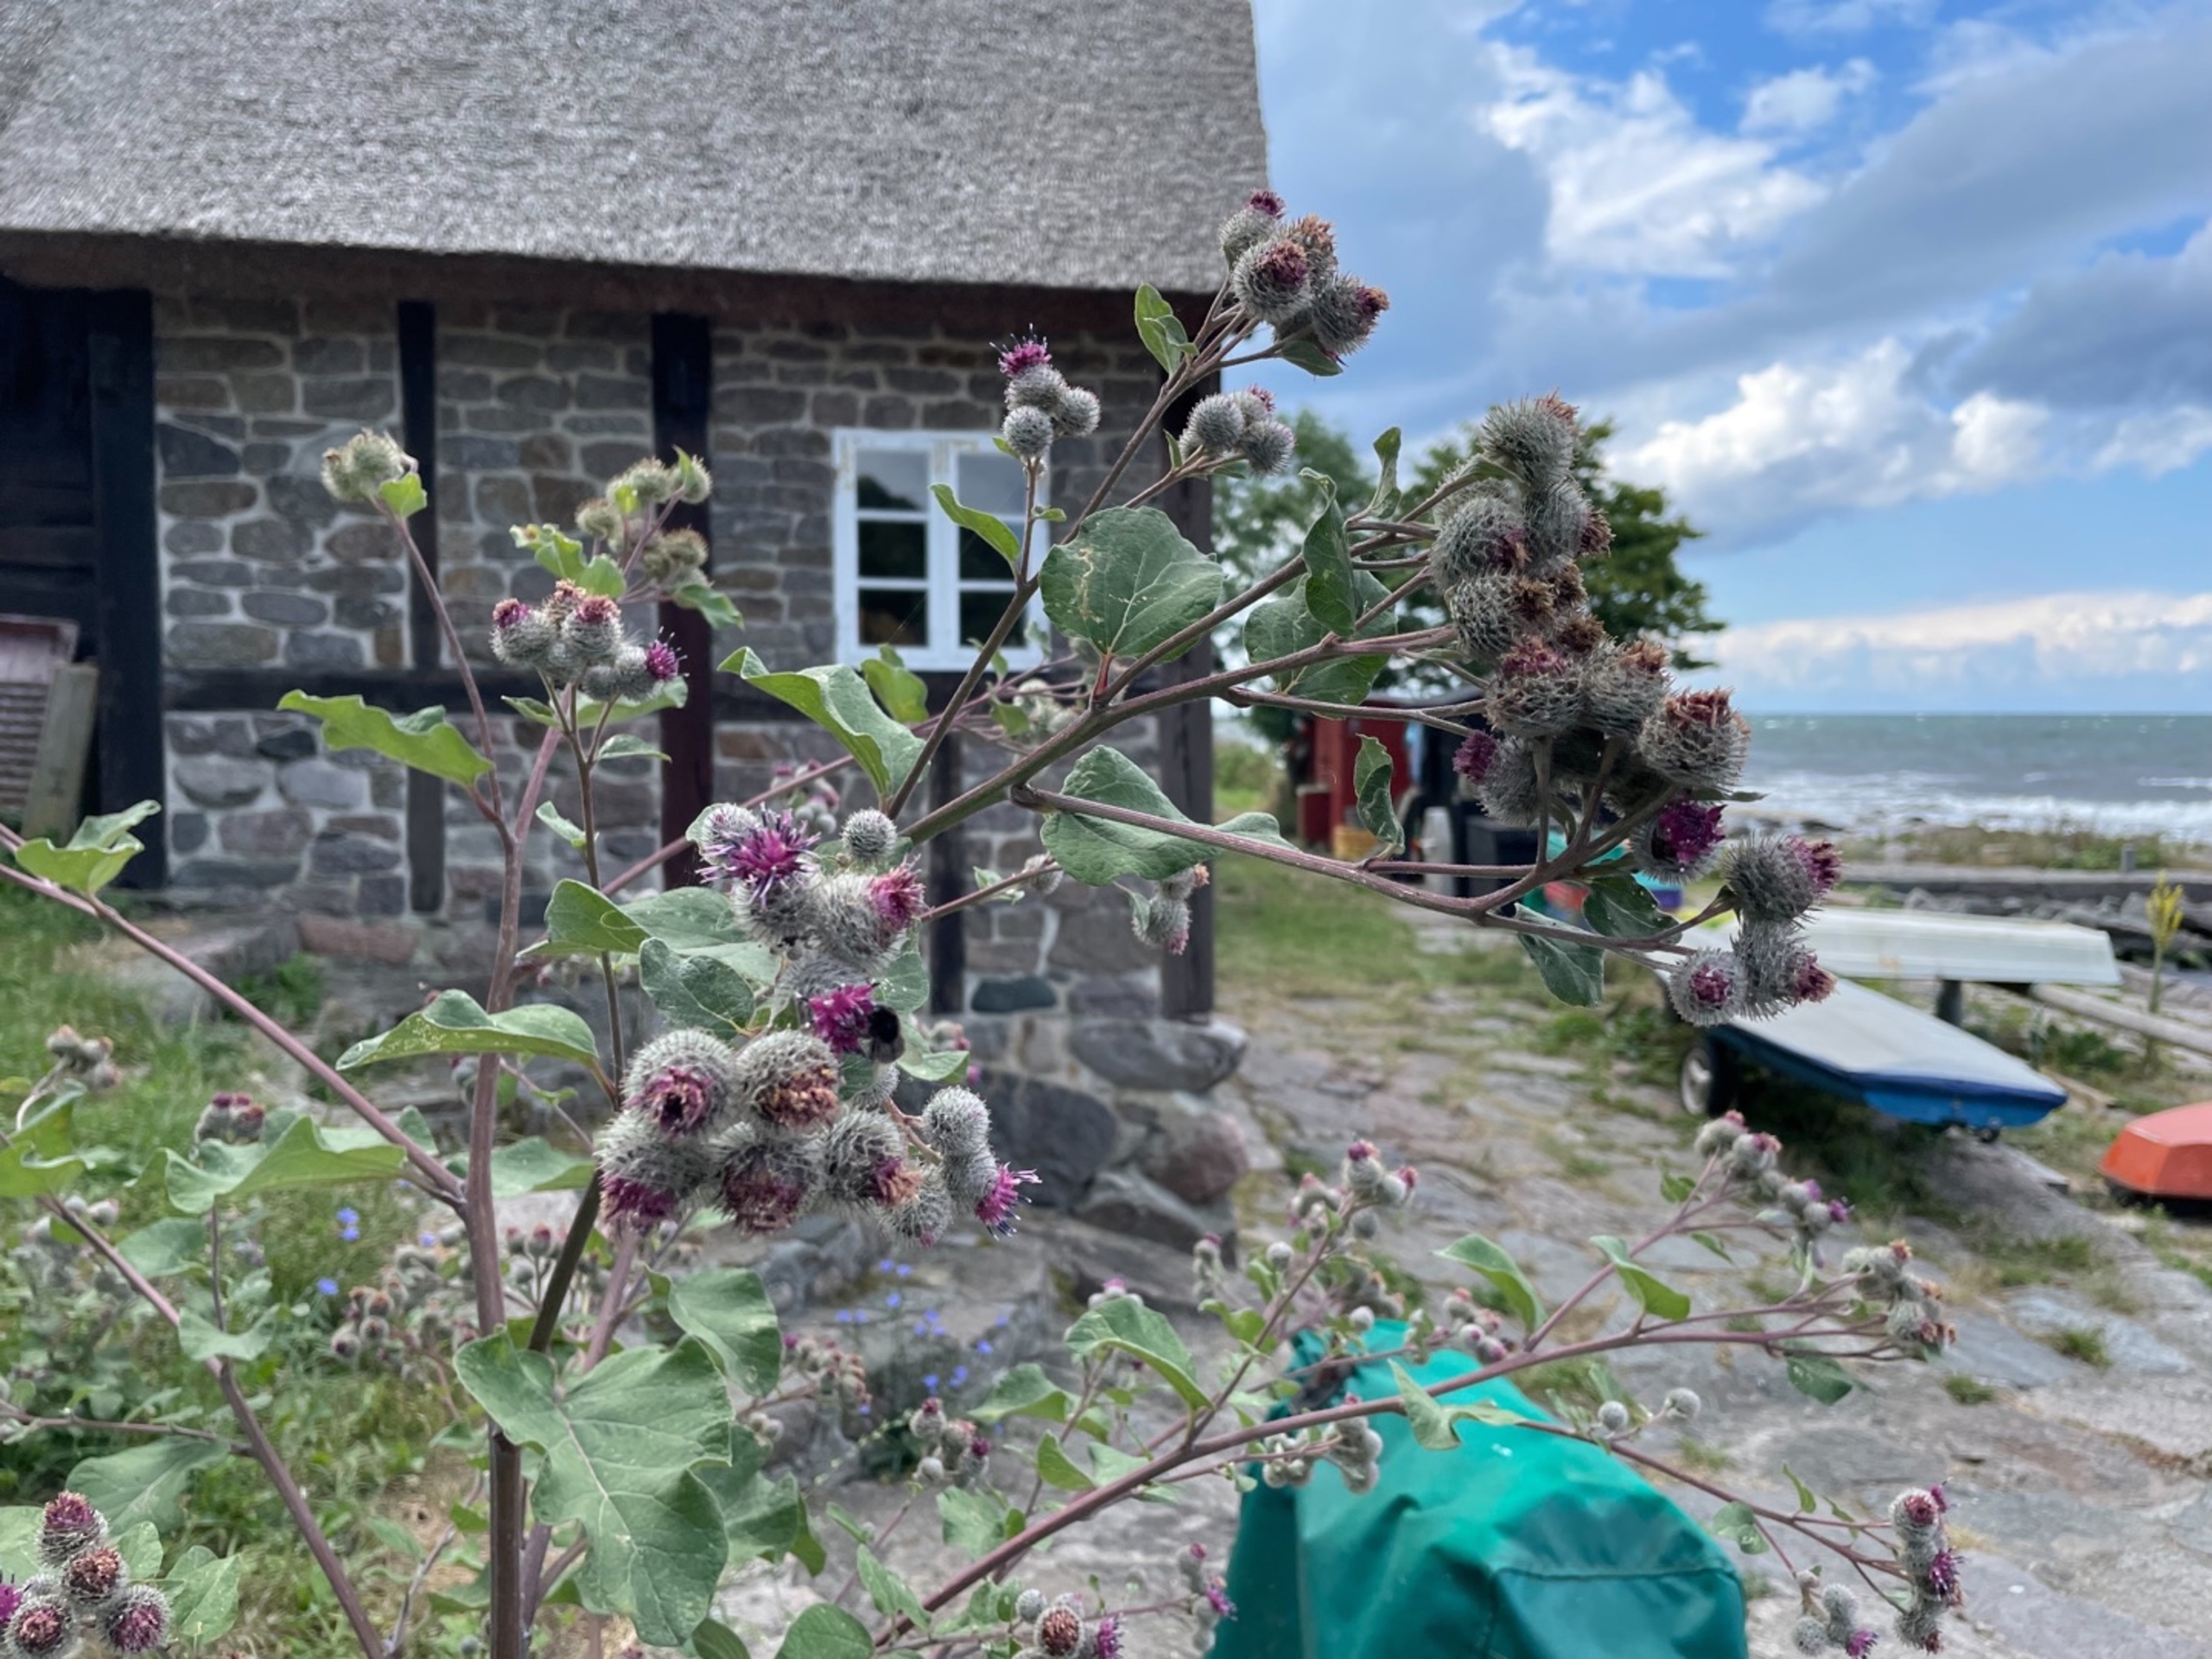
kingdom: Plantae
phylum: Tracheophyta
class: Magnoliopsida
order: Asterales
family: Asteraceae
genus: Arctium
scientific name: Arctium tomentosum
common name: Filtet burre
